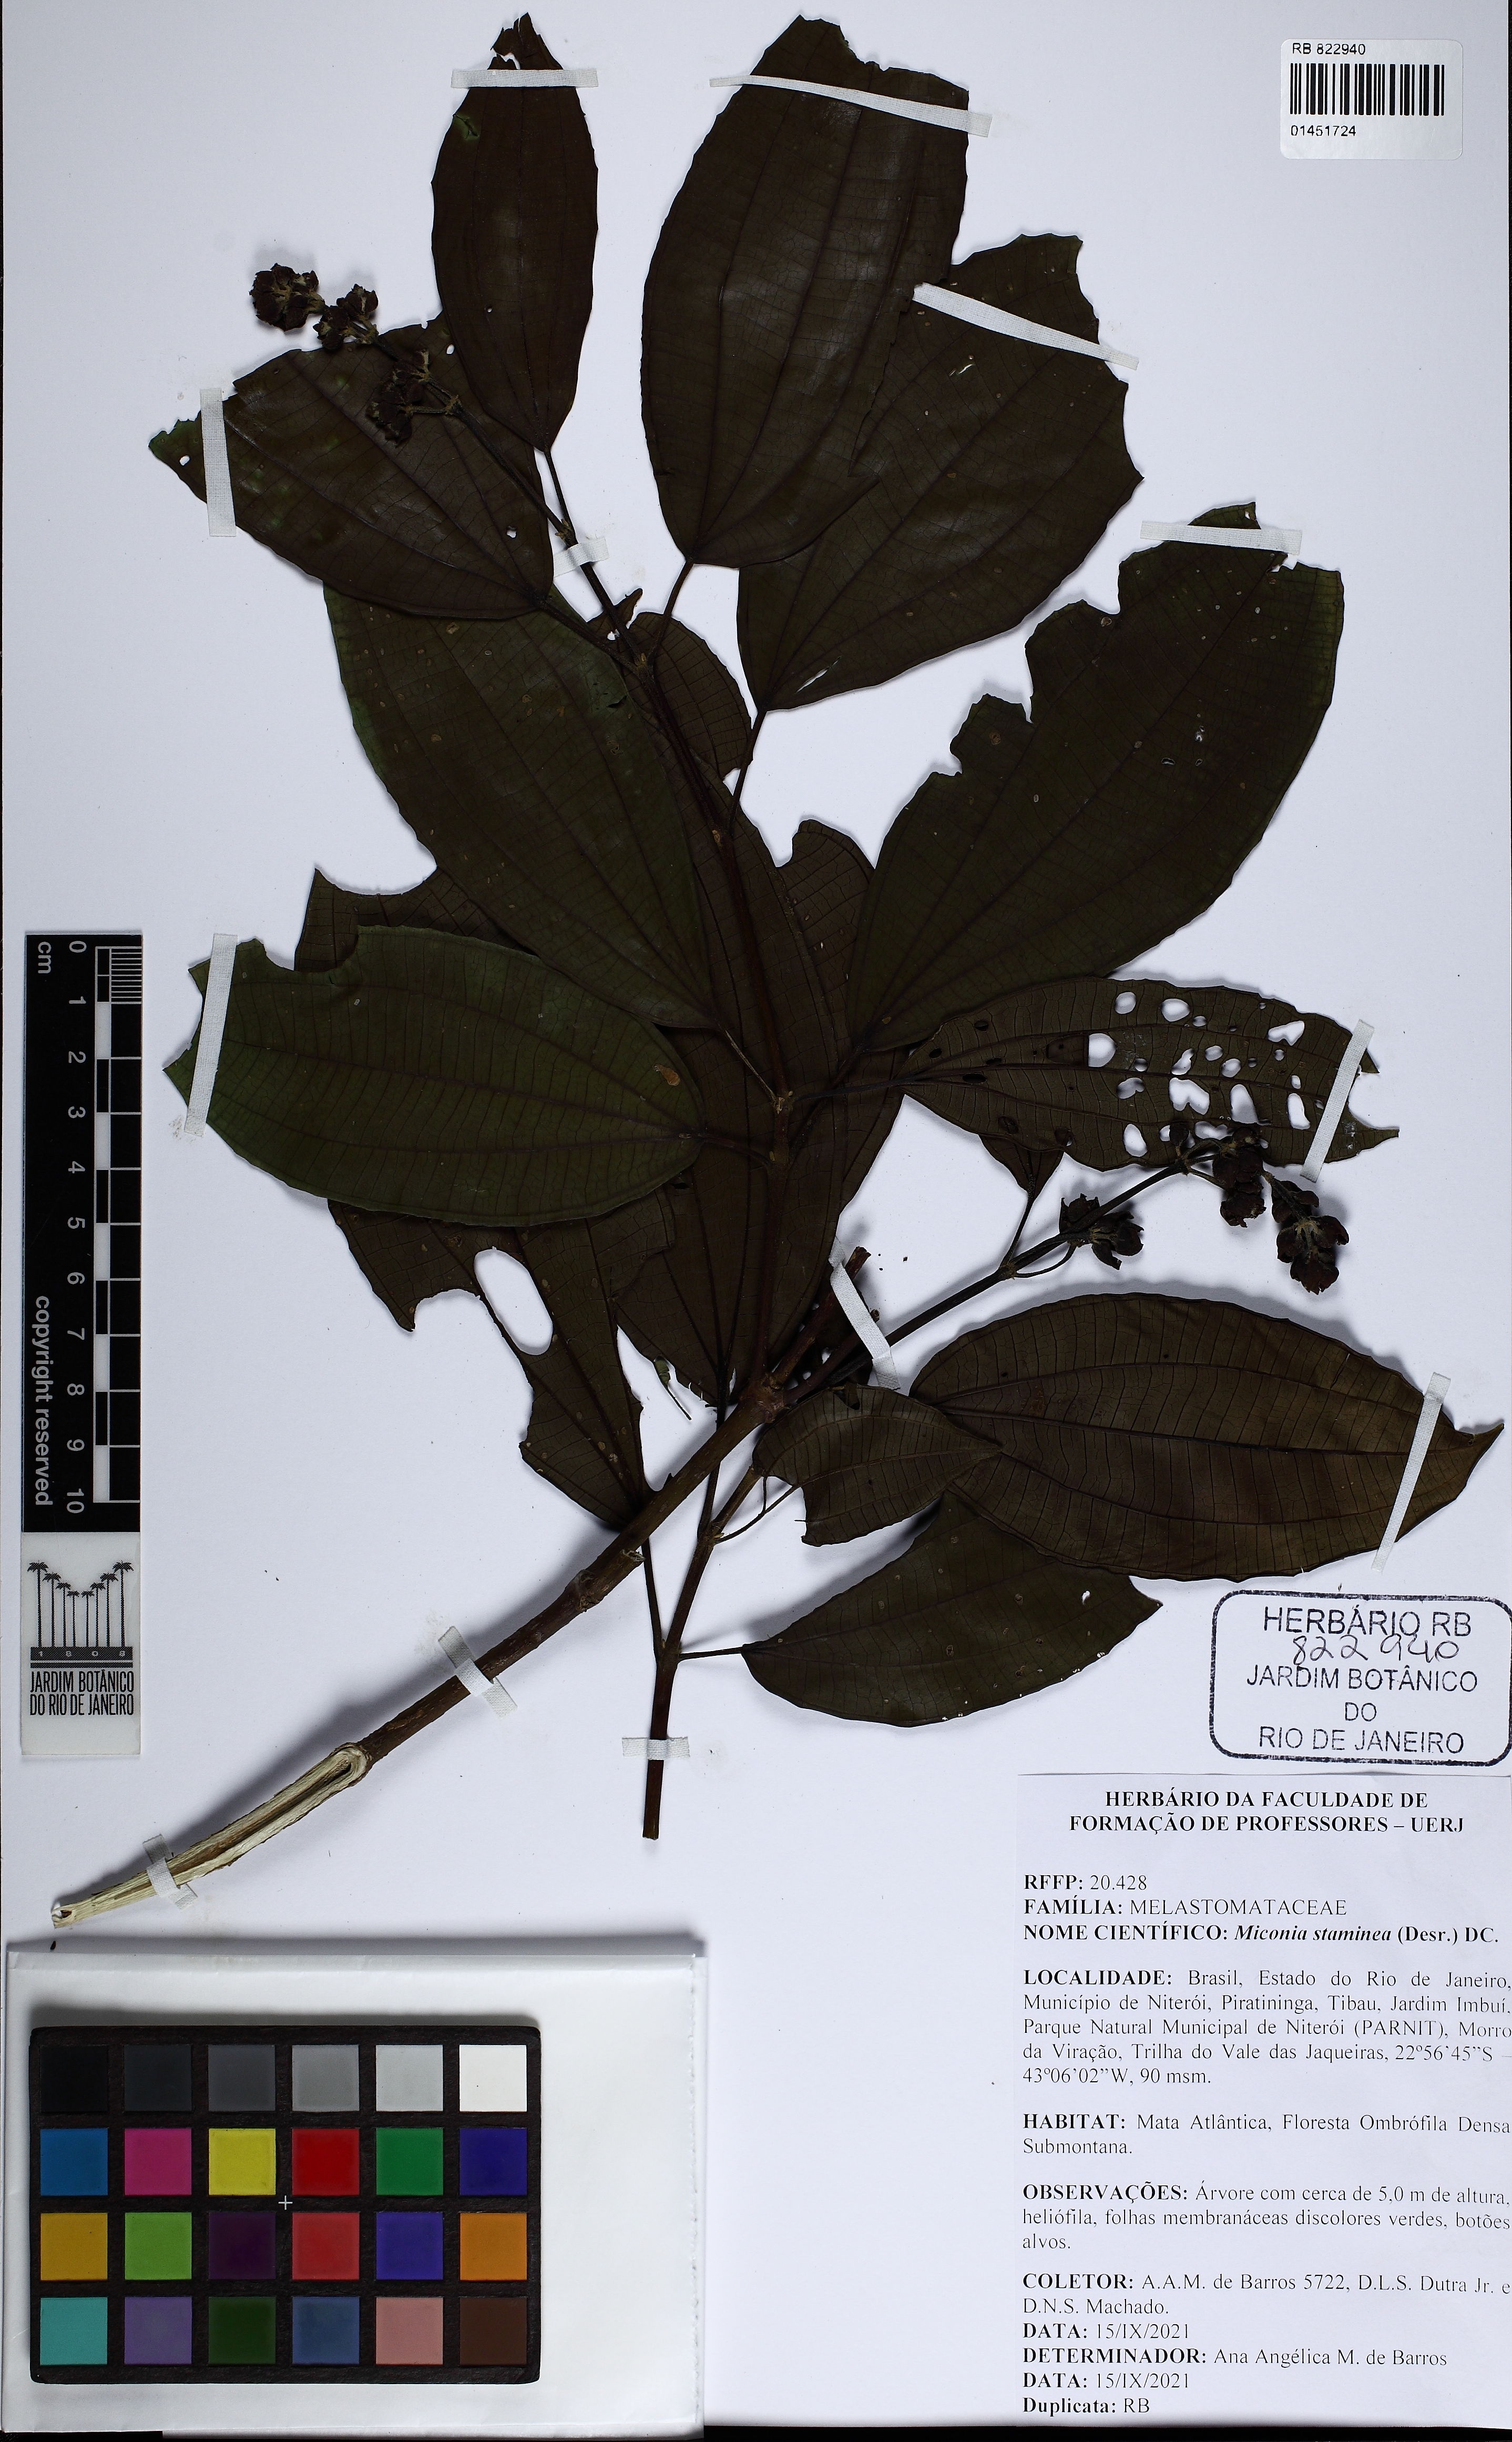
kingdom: Plantae
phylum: Tracheophyta
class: Magnoliopsida
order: Myrtales
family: Melastomataceae
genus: Miconia
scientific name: Miconia staminea
